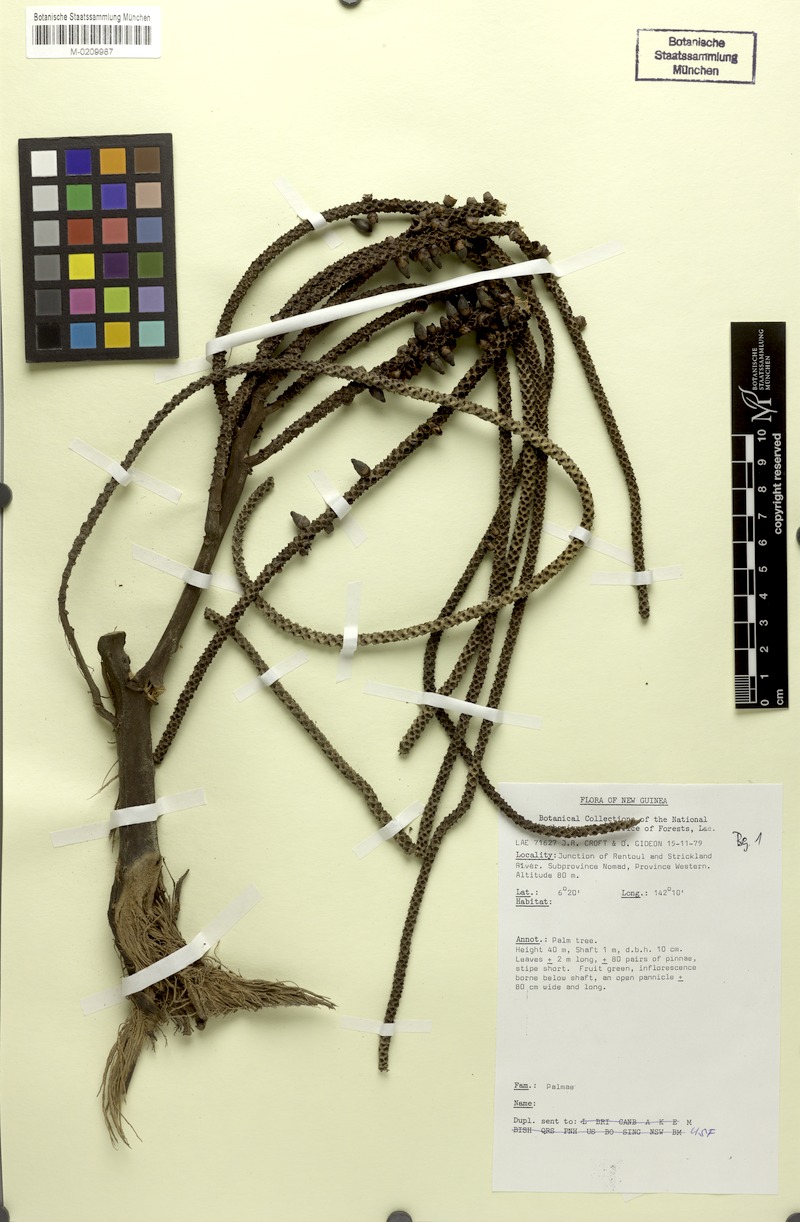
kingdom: Plantae
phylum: Tracheophyta
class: Liliopsida
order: Arecales
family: Arecaceae
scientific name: Arecaceae
